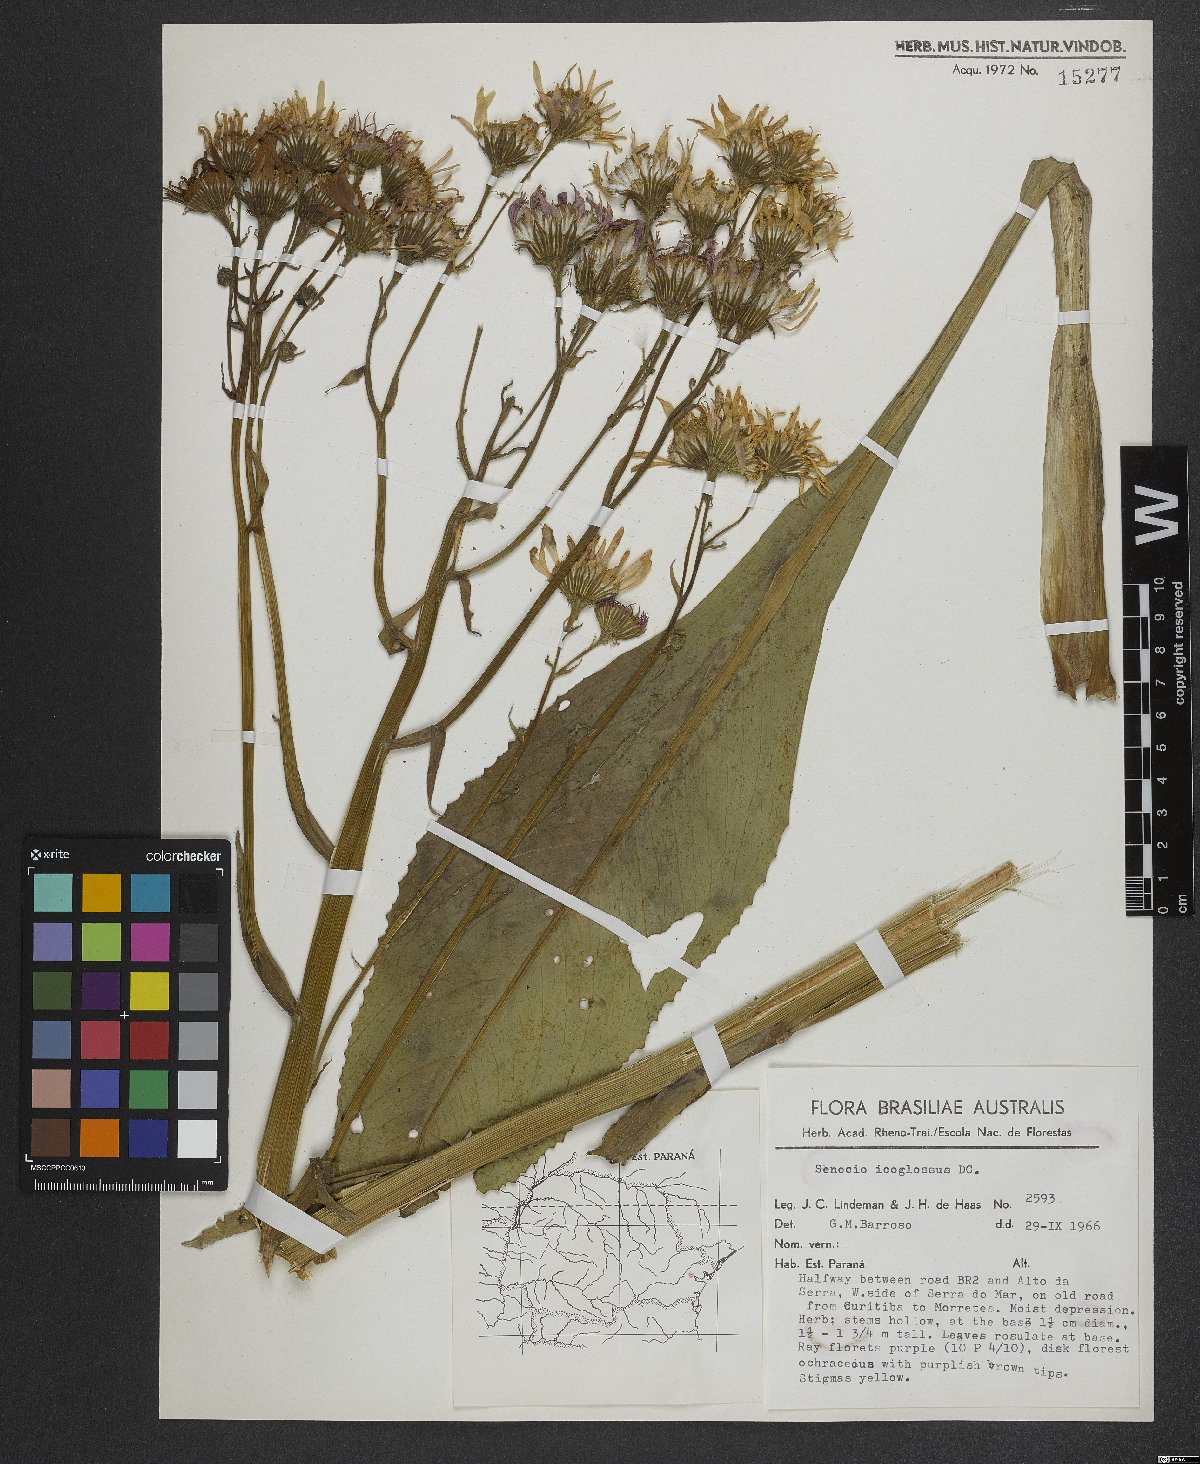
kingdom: Plantae
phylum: Tracheophyta
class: Magnoliopsida
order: Asterales
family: Asteraceae
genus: Senecio
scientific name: Senecio icoglossus
